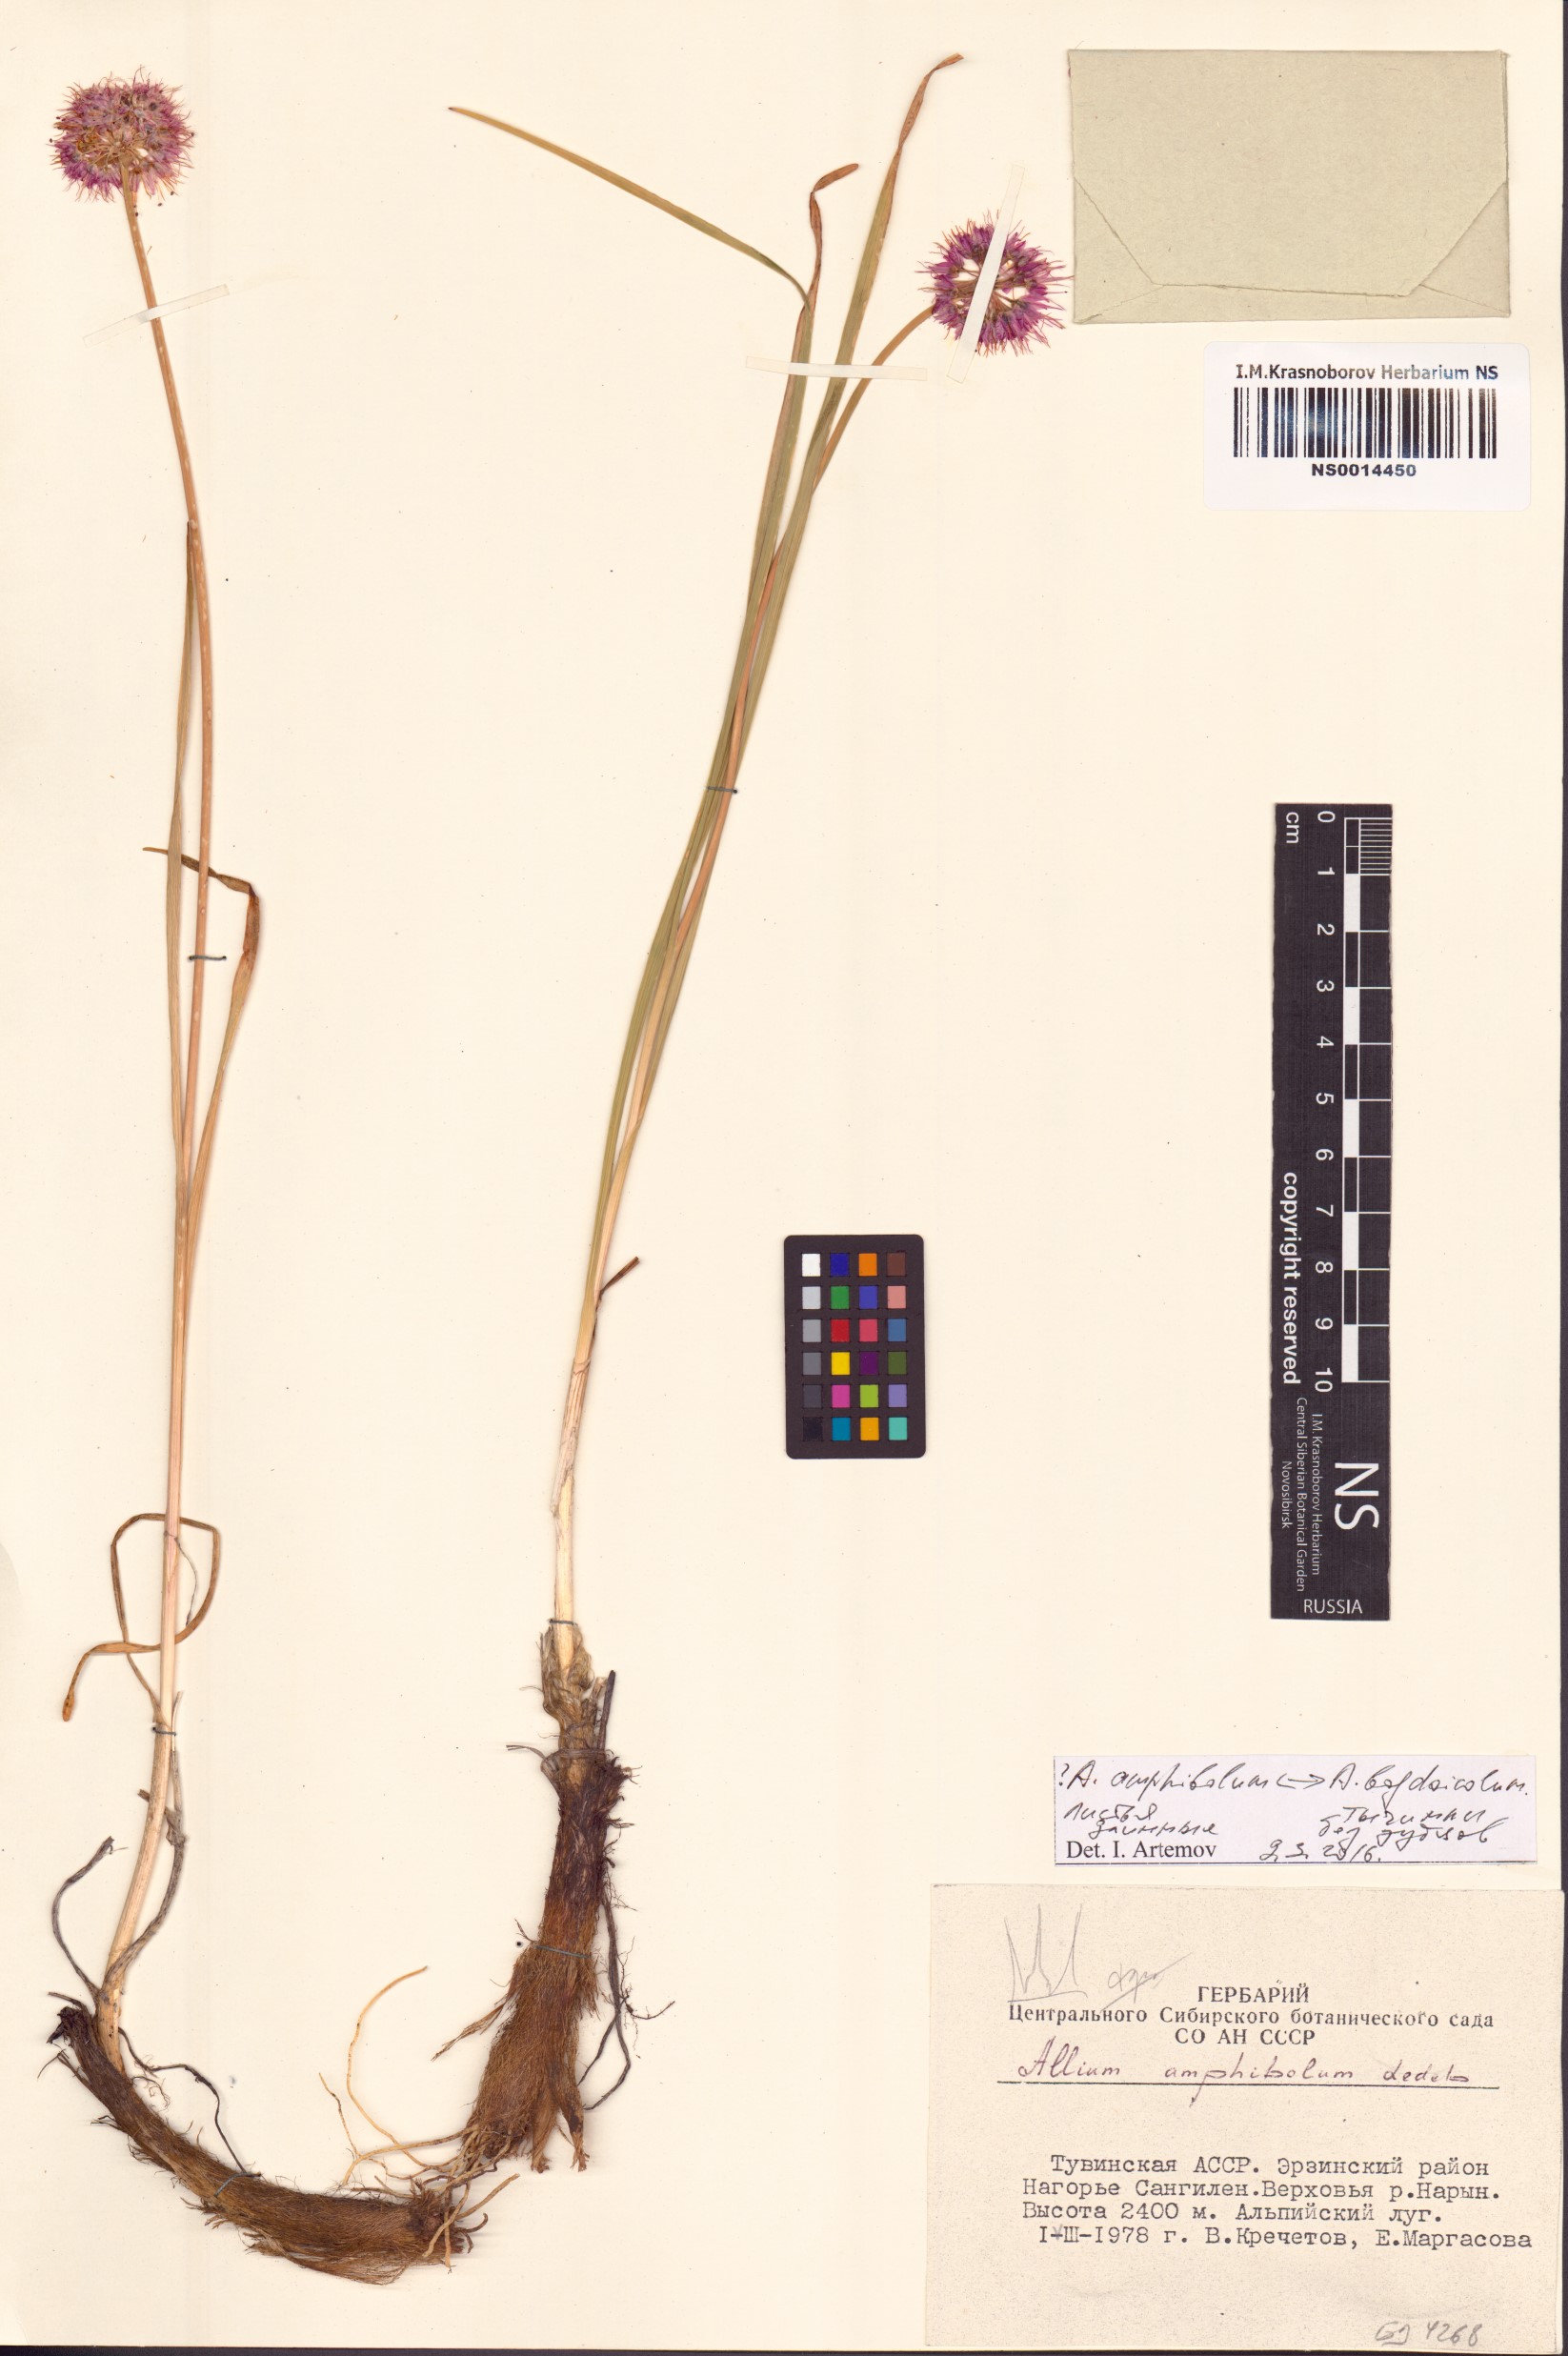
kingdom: Plantae
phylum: Tracheophyta
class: Liliopsida
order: Asparagales
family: Amaryllidaceae
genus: Allium
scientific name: Allium amphibolum
